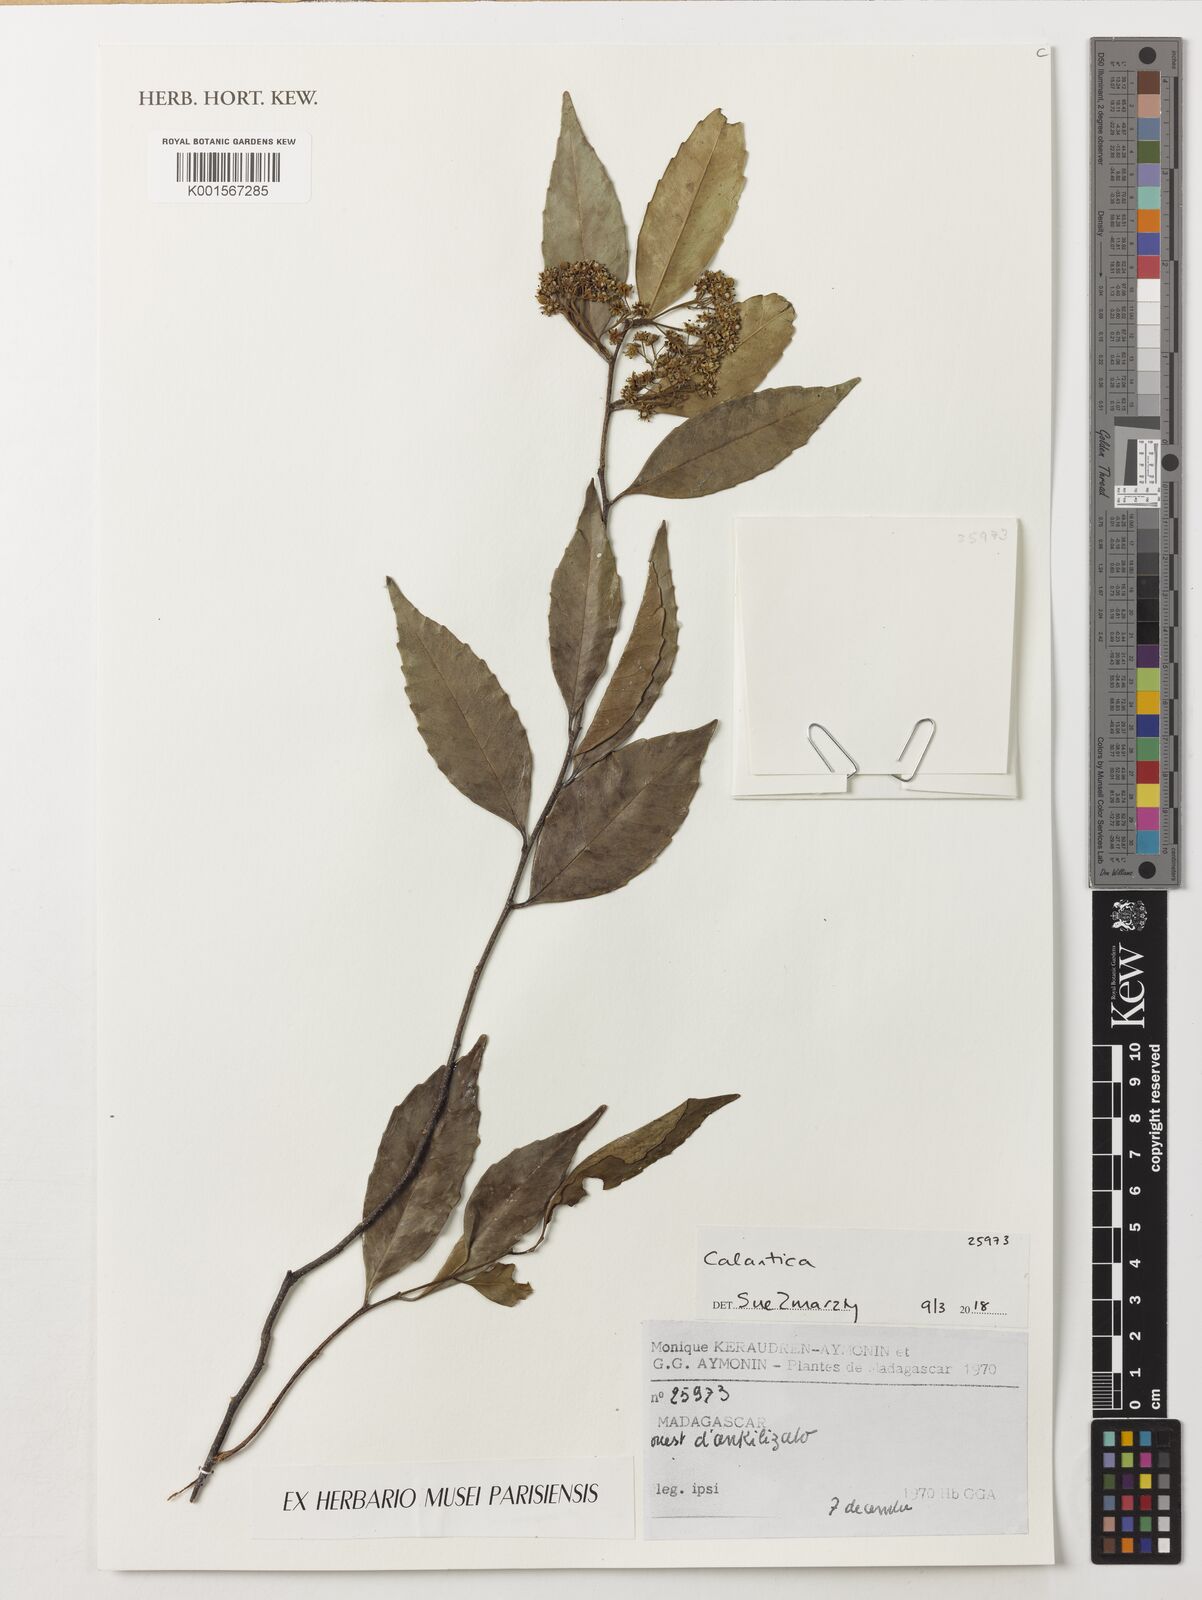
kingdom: Plantae
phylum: Tracheophyta
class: Magnoliopsida
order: Malpighiales
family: Salicaceae
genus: Tisonia
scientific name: Tisonia
